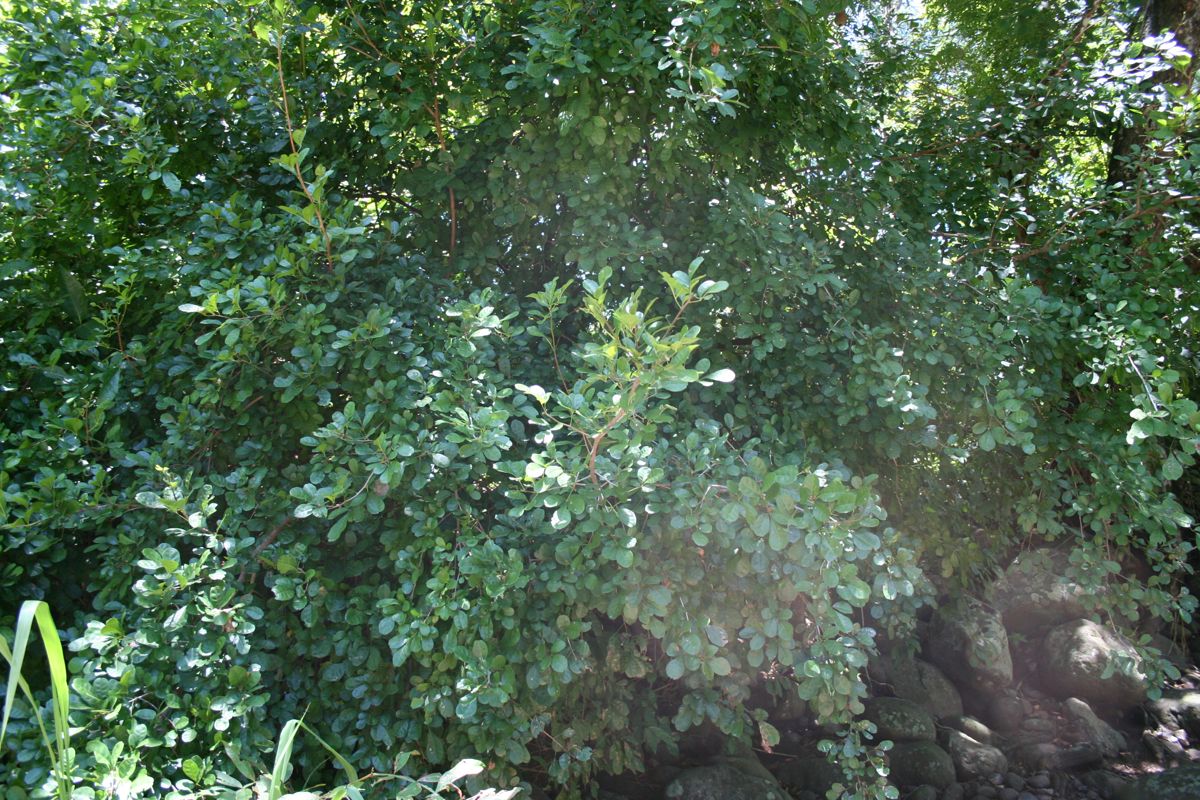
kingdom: Plantae
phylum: Tracheophyta
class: Magnoliopsida
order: Sapindales
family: Meliaceae
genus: Trichilia
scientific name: Trichilia trifolia
